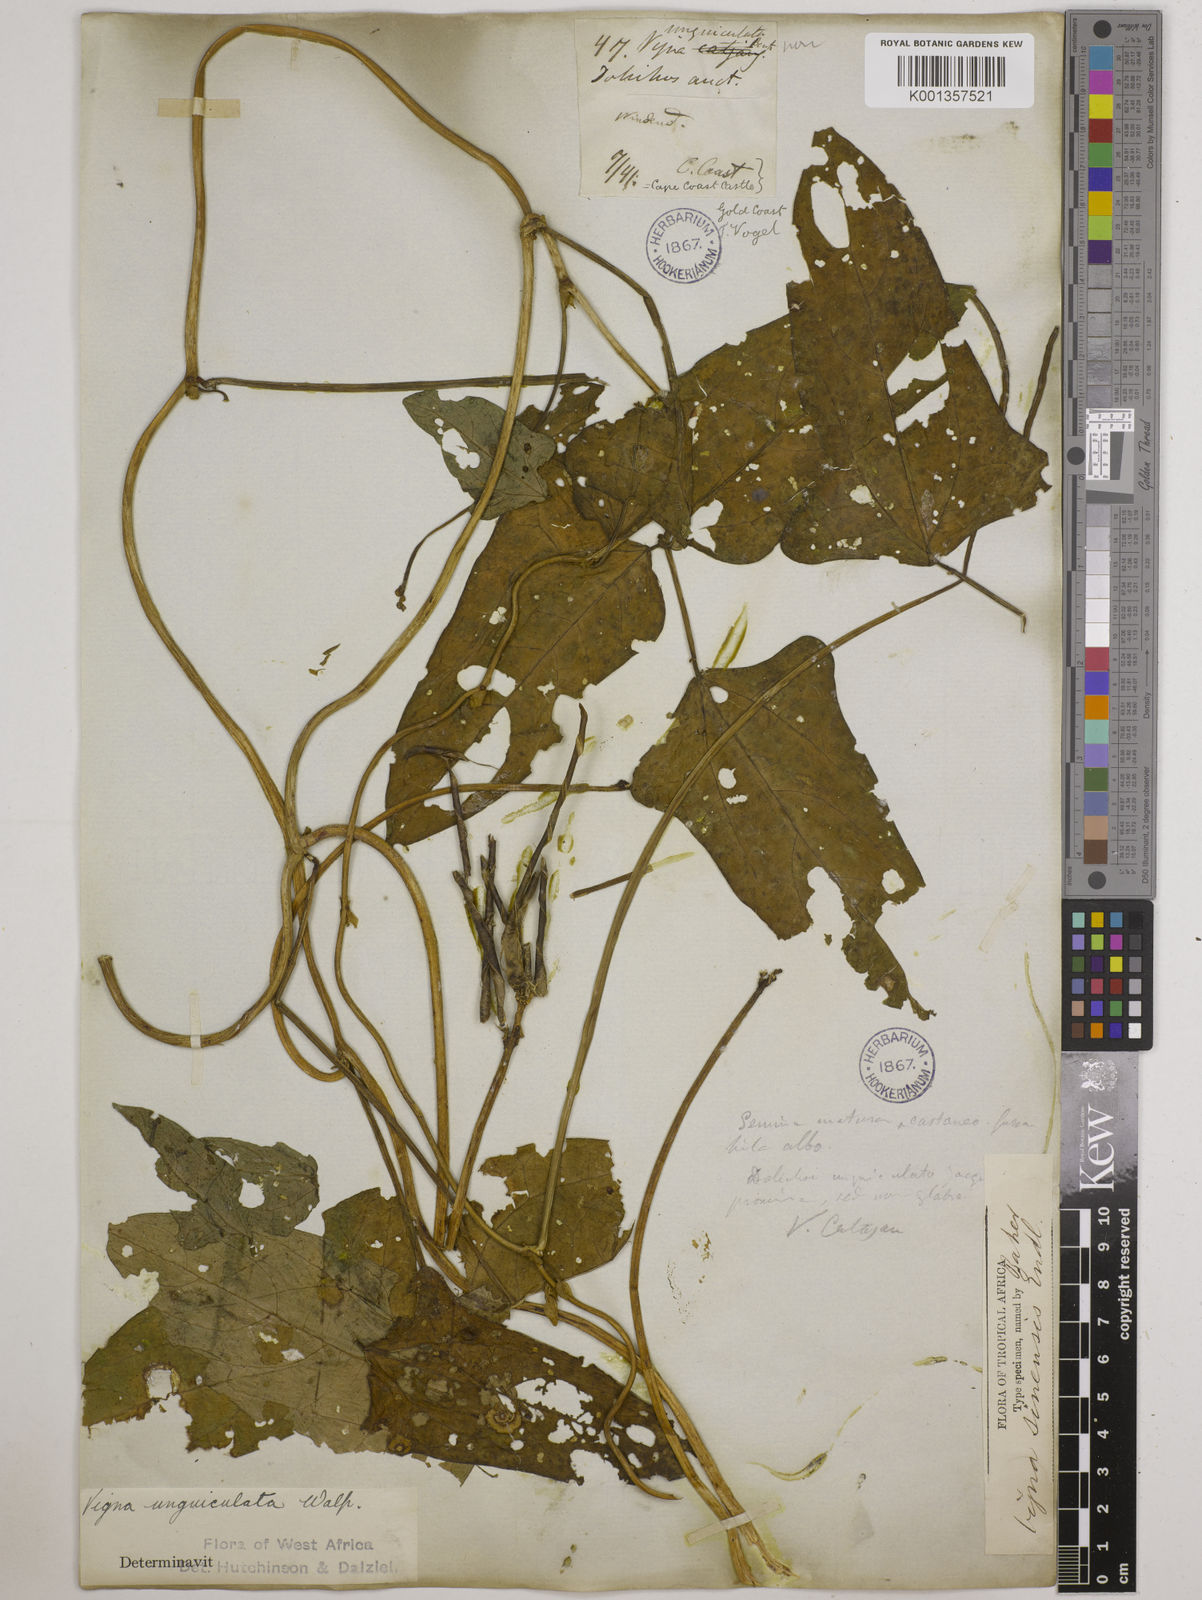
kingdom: Plantae
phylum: Tracheophyta
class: Magnoliopsida
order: Fabales
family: Fabaceae
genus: Vigna
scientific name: Vigna
